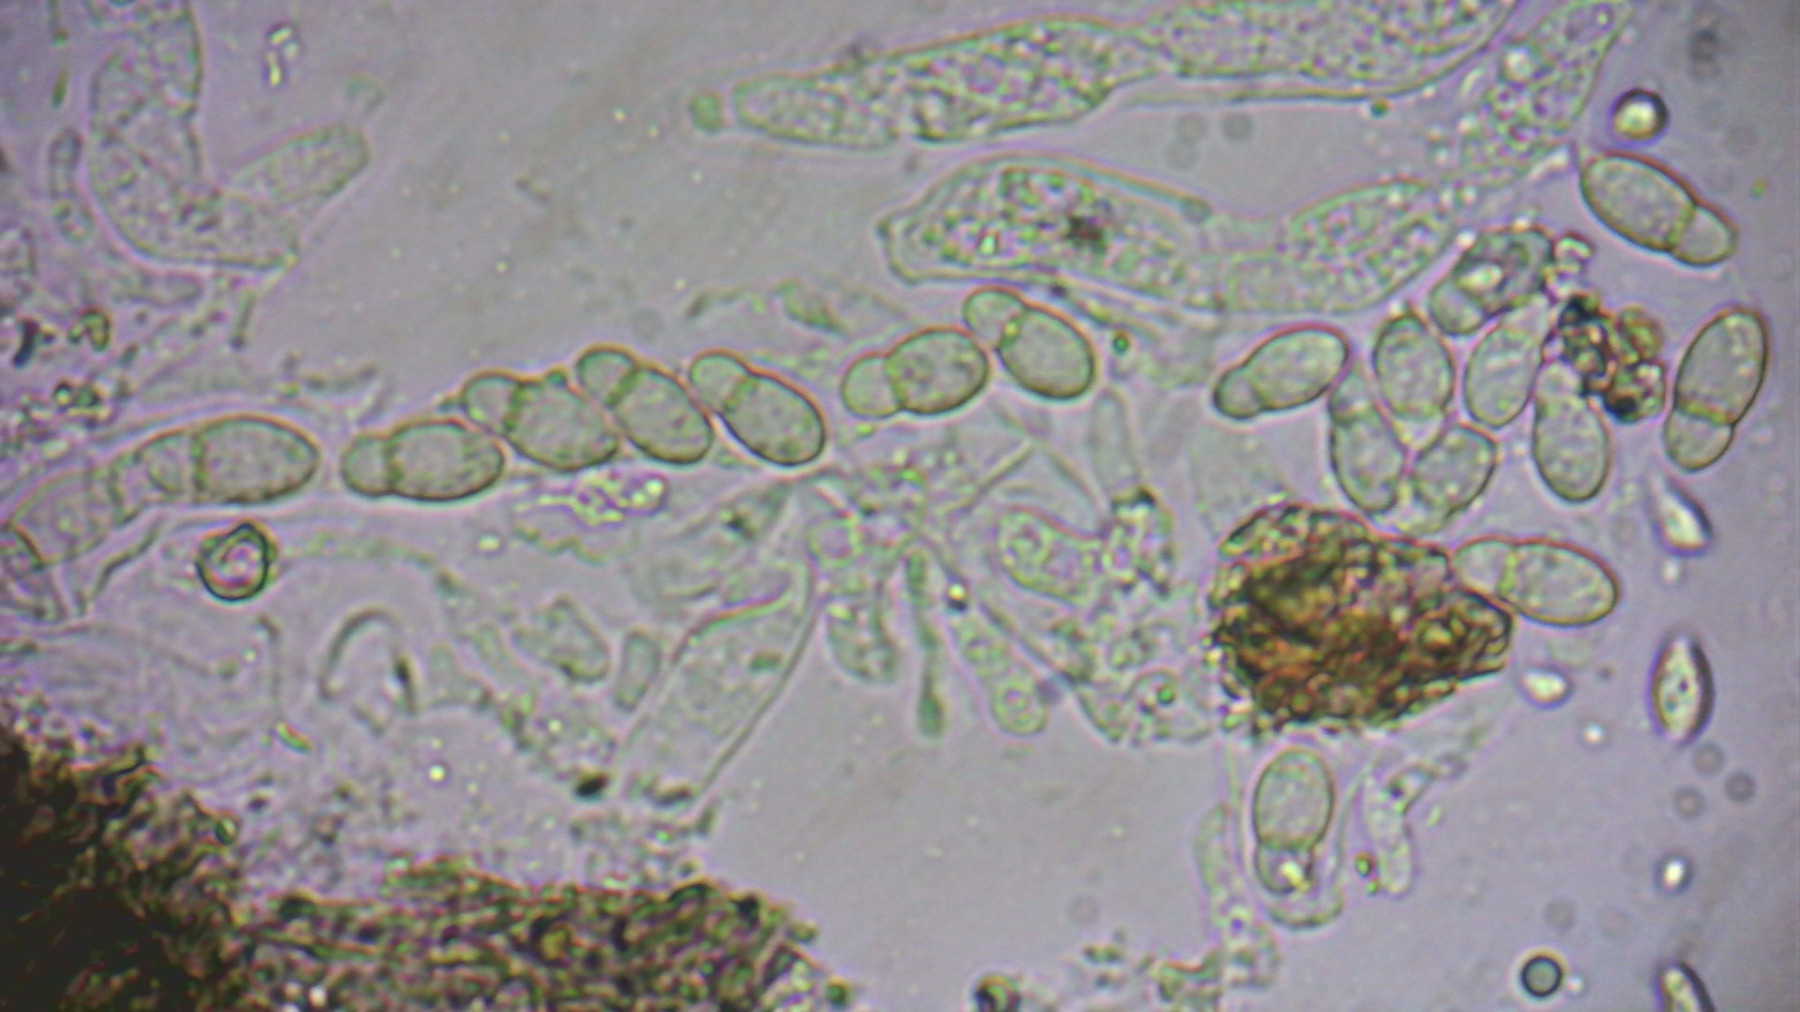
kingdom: Fungi
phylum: Ascomycota
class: Dothideomycetes
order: Venturiales
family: Venturiaceae
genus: Coleroa
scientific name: Coleroa robertiani
